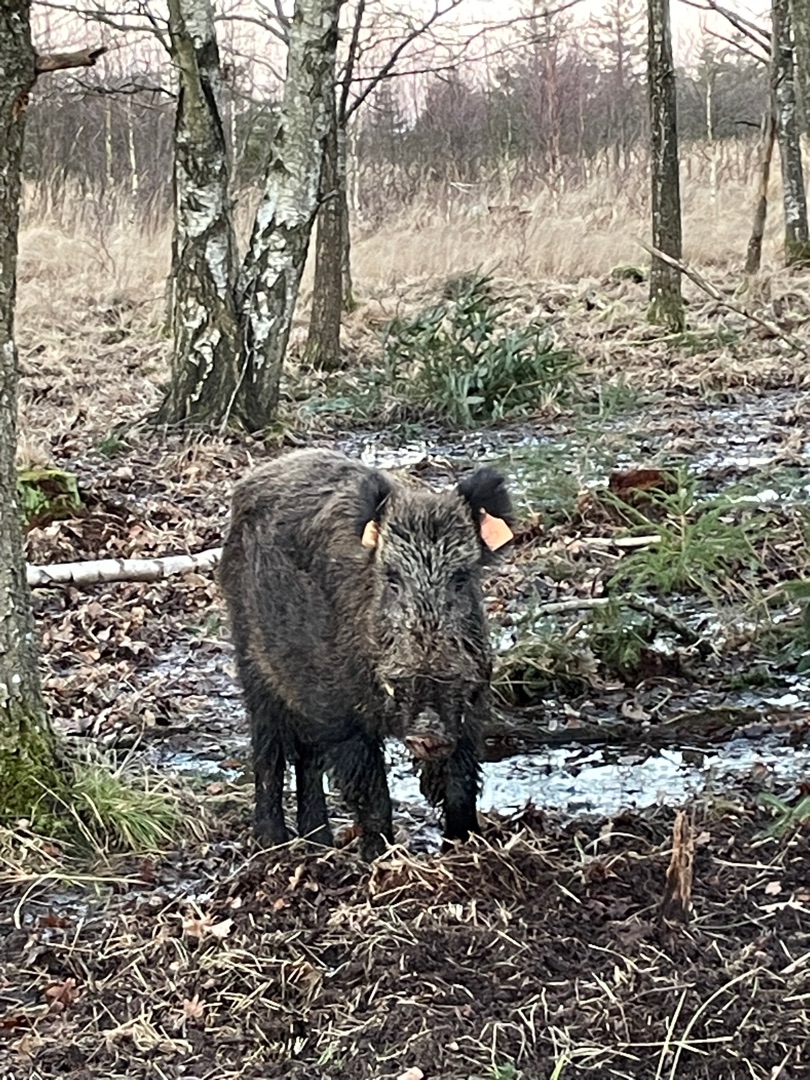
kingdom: Animalia
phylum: Chordata
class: Mammalia
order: Artiodactyla
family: Suidae
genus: Sus
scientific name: Sus scrofa
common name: Vildsvin
